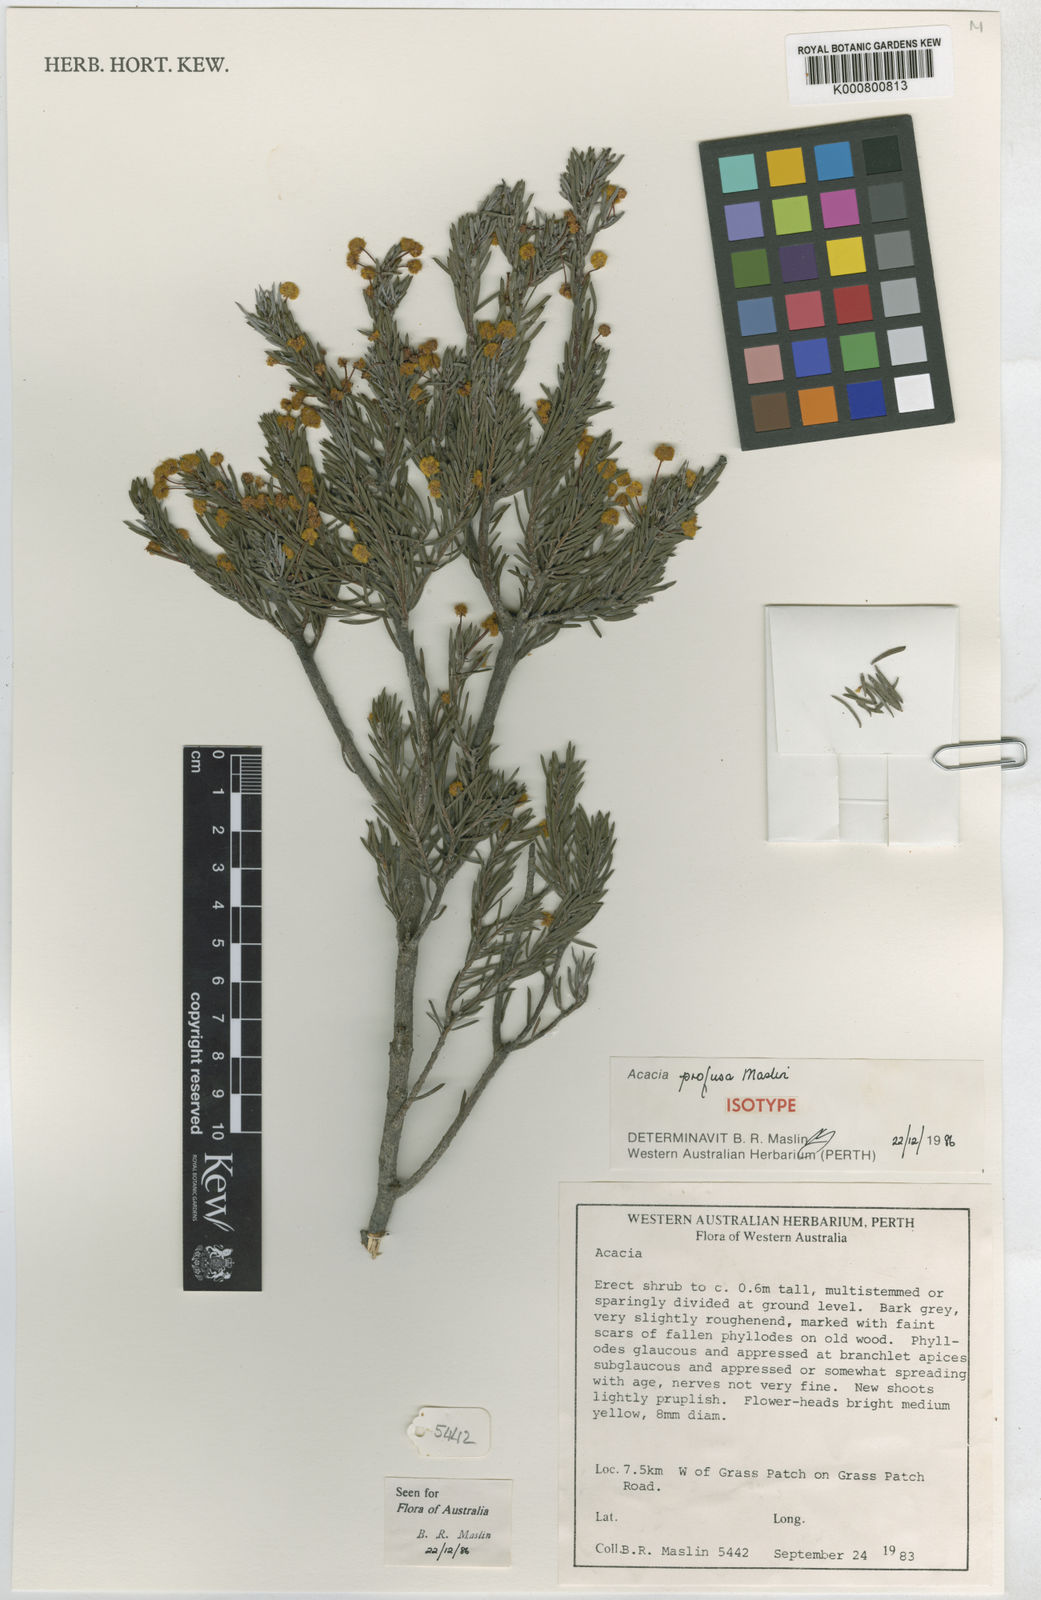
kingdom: Plantae
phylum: Tracheophyta
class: Magnoliopsida
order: Fabales
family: Fabaceae
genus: Acacia
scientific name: Acacia profusa
